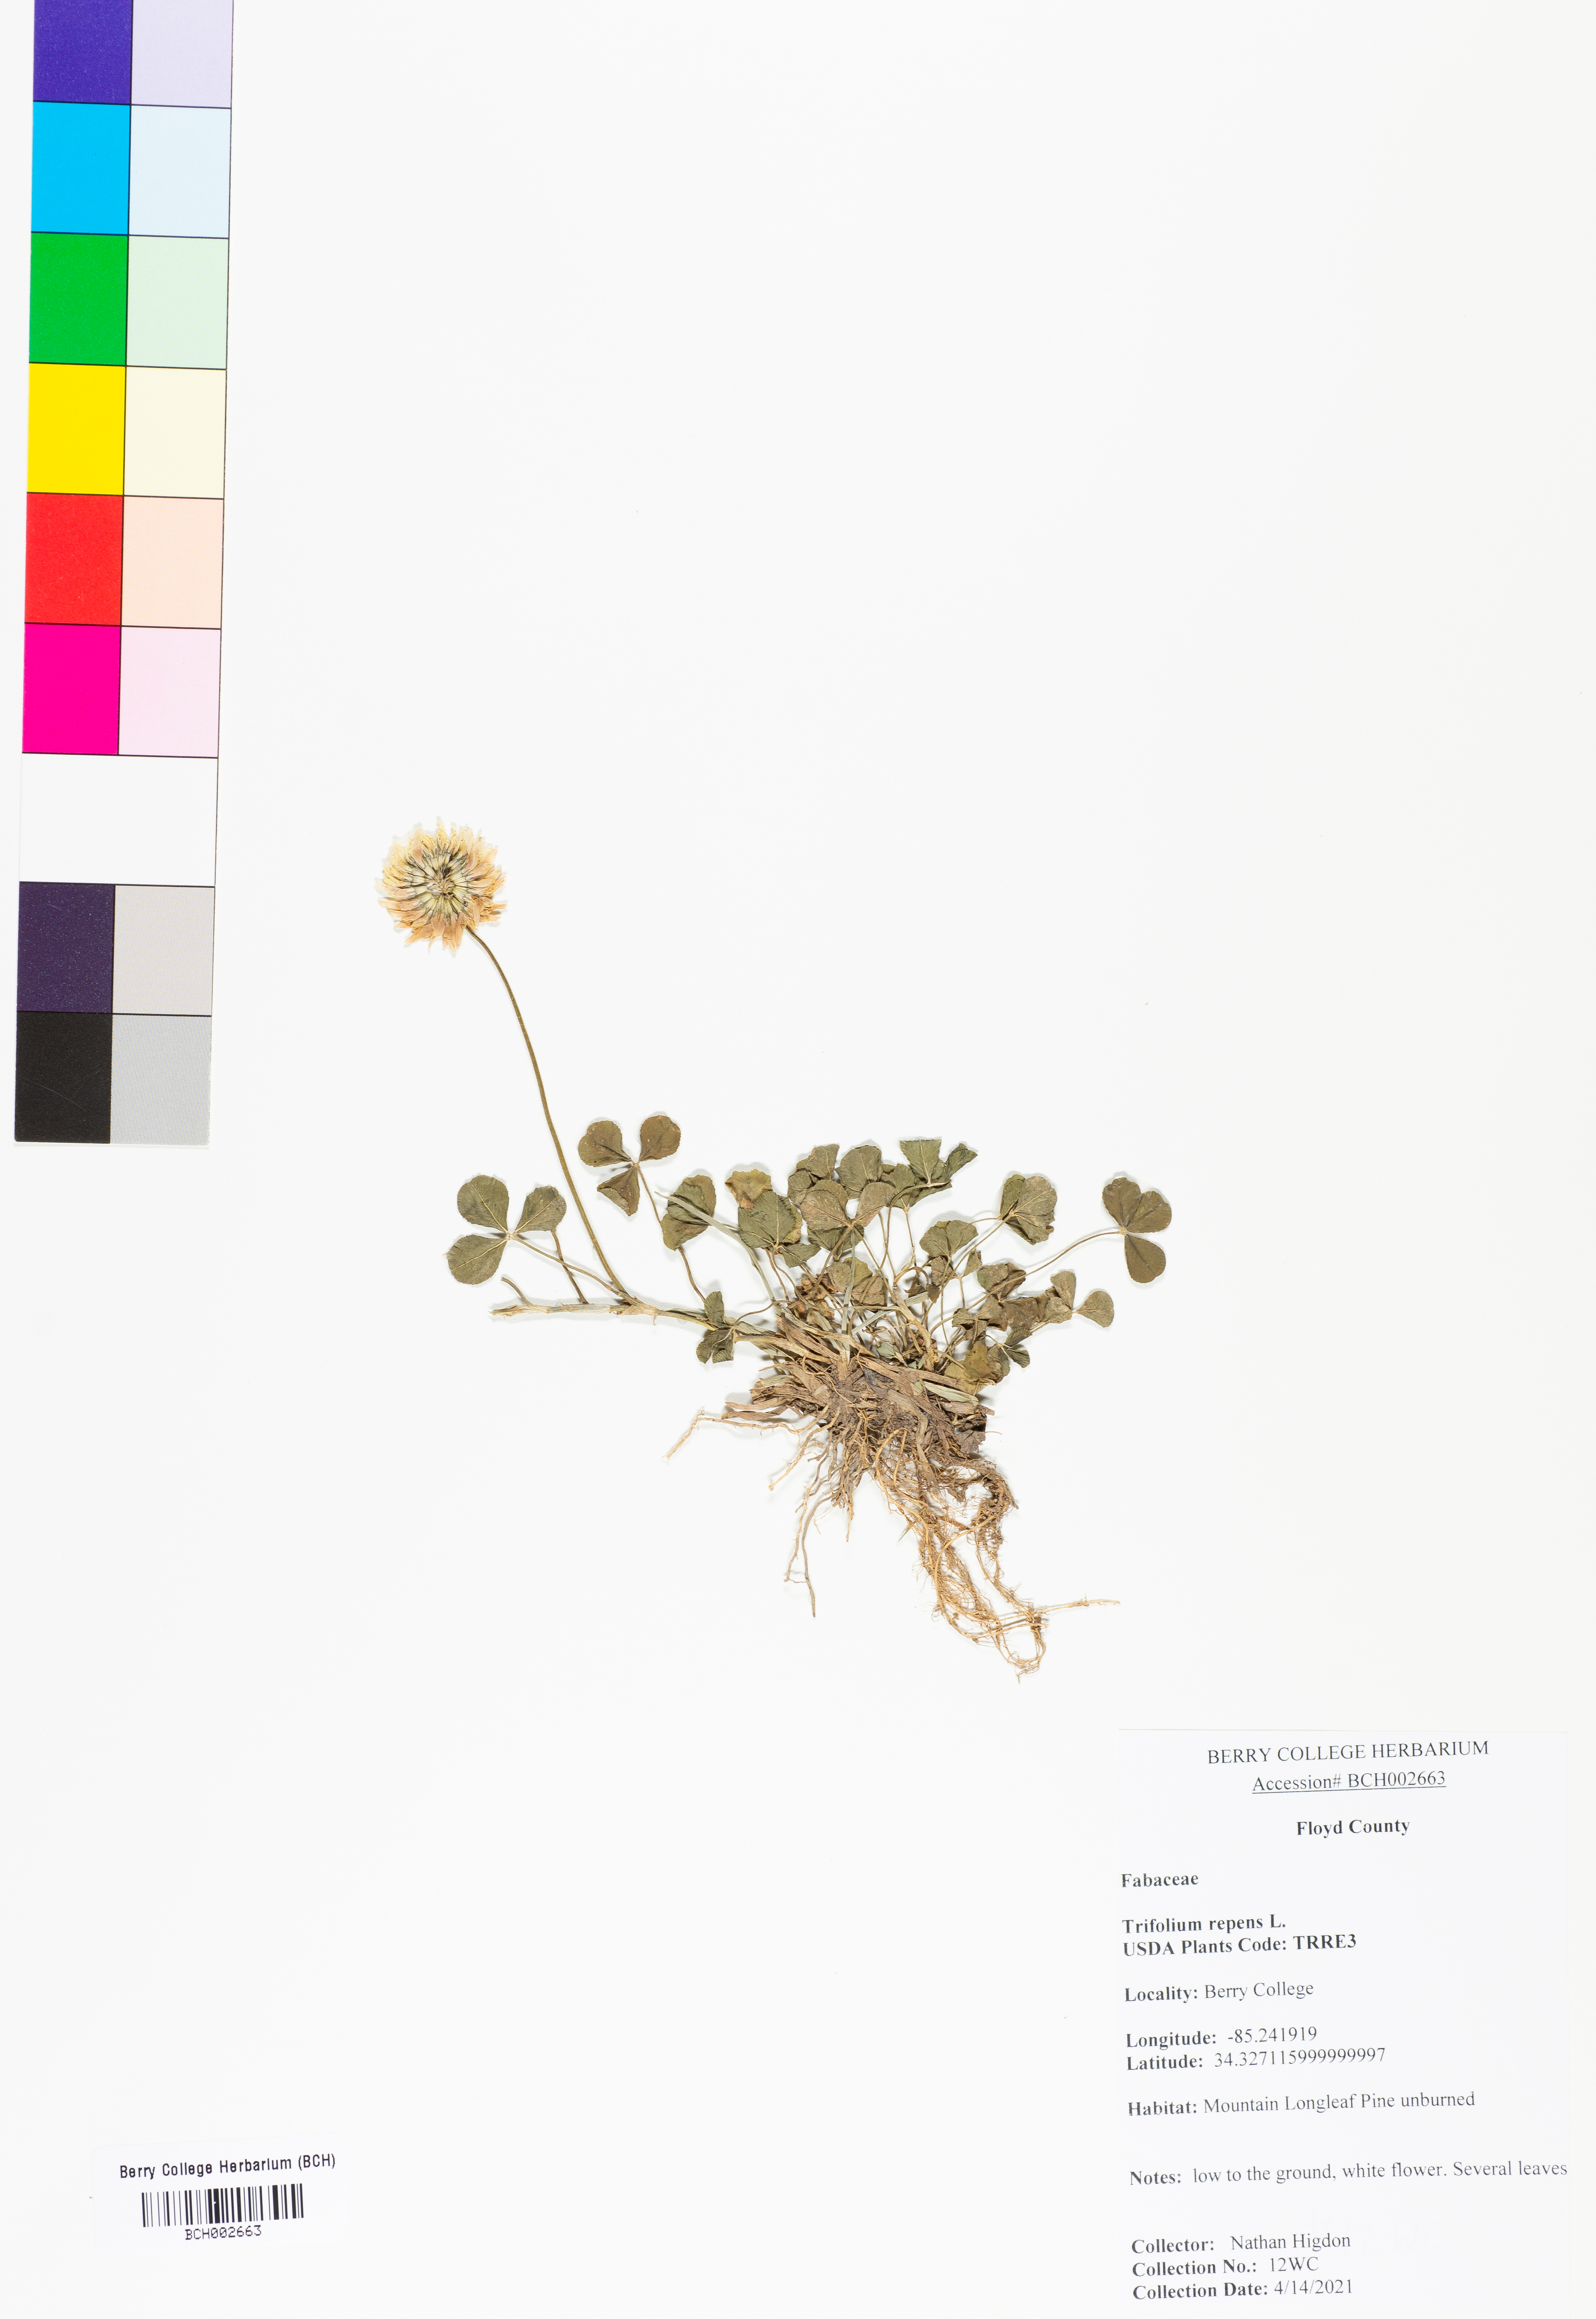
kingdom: Plantae
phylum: Tracheophyta
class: Magnoliopsida
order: Fabales
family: Fabaceae
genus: Trifolium
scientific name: Trifolium repens
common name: White clover
